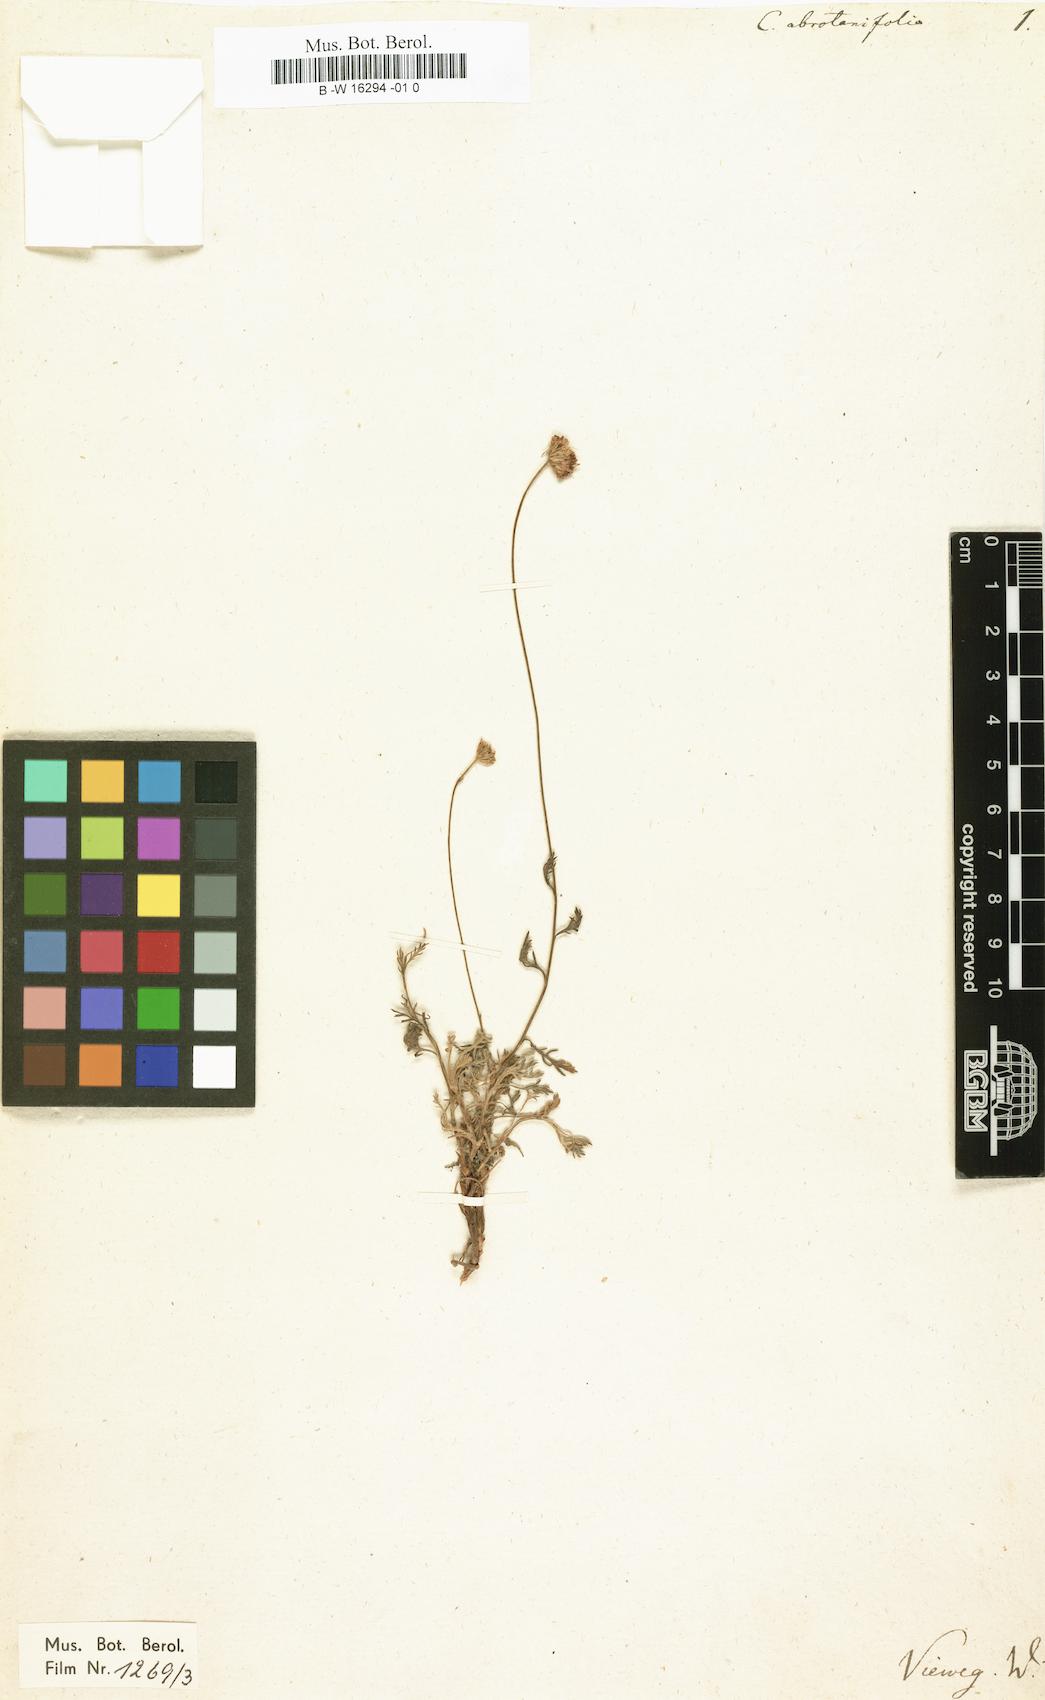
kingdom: Plantae
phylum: Tracheophyta
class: Magnoliopsida
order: Asterales
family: Asteraceae
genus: Anthemis
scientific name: Anthemis abrotanifolia
